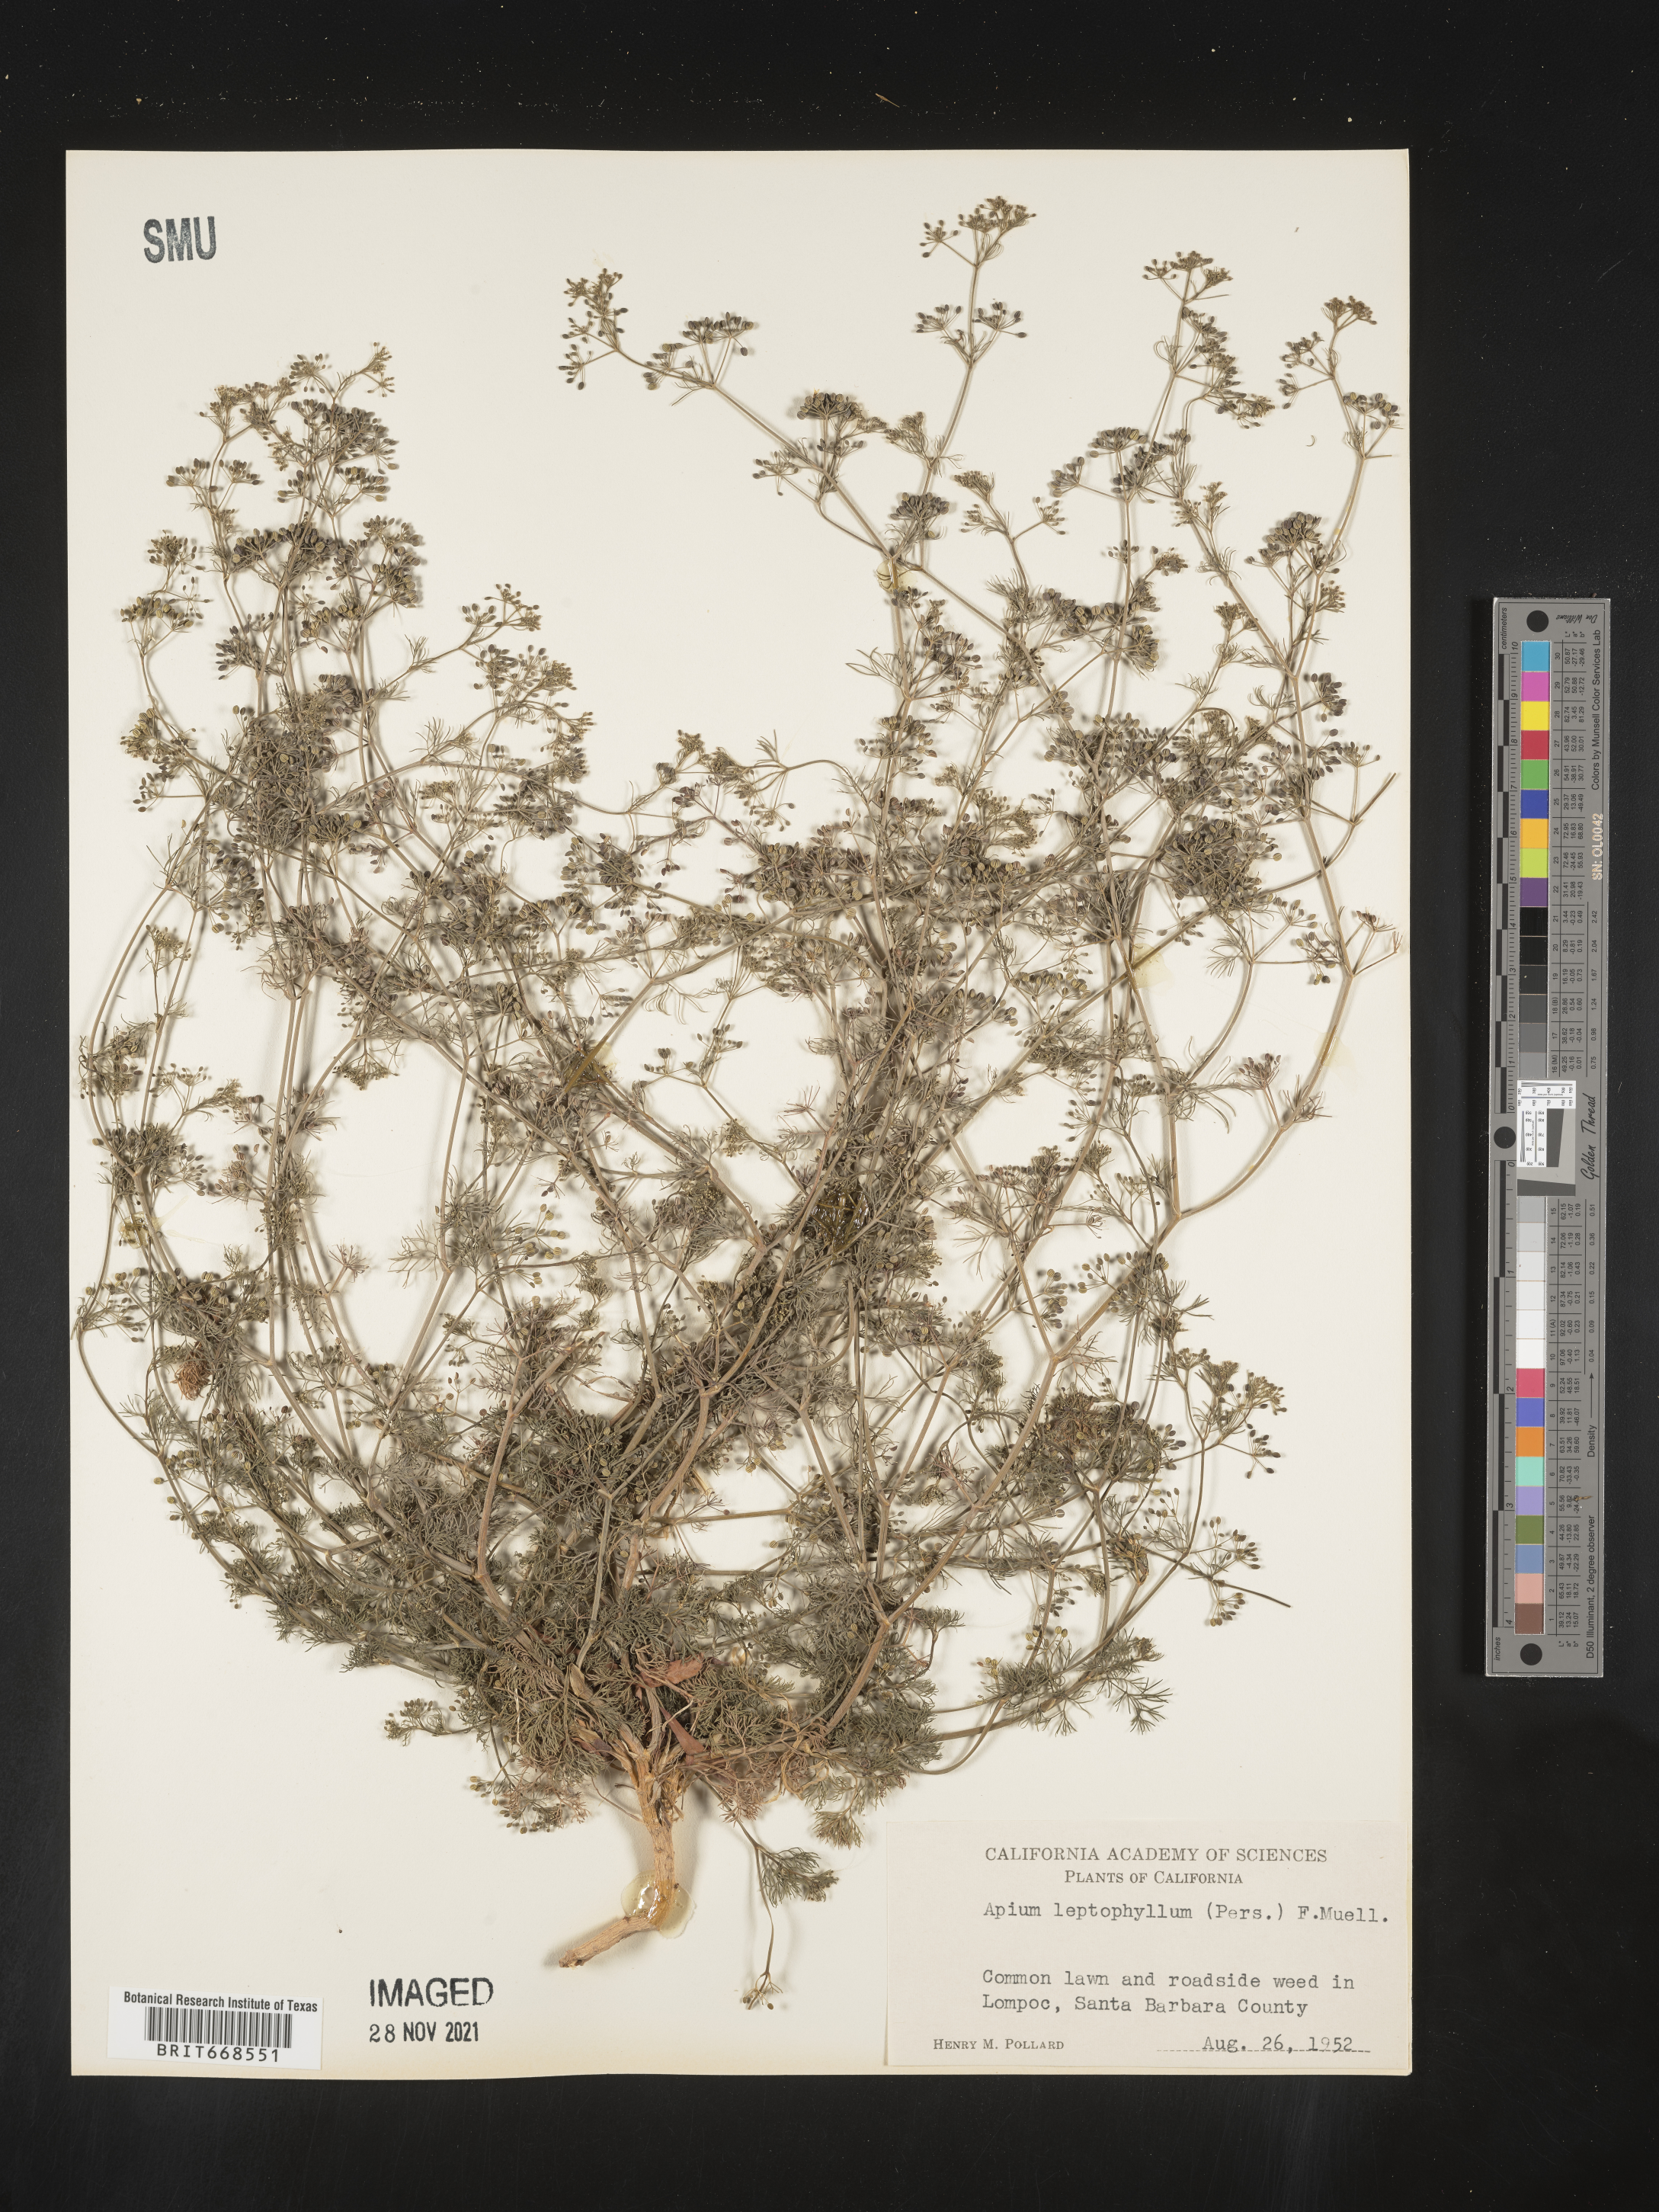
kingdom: Plantae
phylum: Tracheophyta
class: Magnoliopsida
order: Apiales
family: Apiaceae
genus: Cyclospermum
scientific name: Cyclospermum leptophyllum
